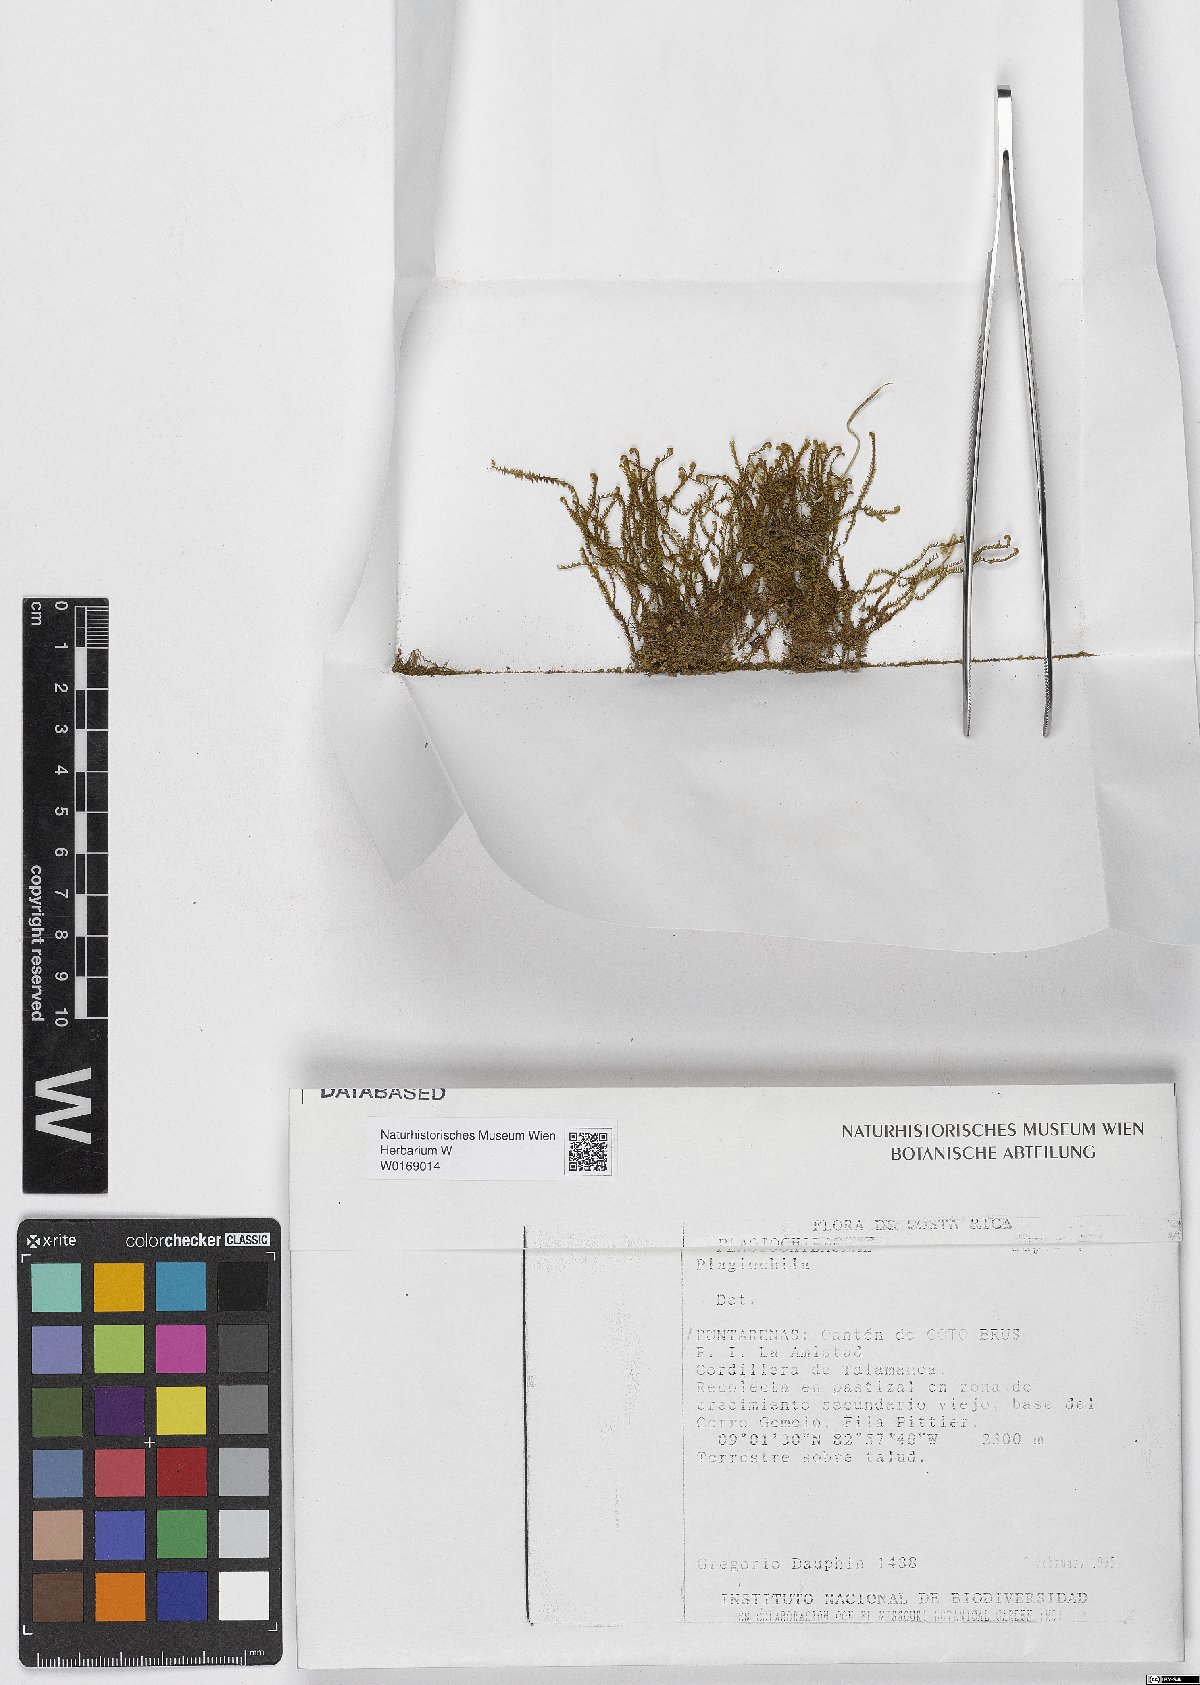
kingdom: Plantae
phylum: Marchantiophyta
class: Jungermanniopsida
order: Jungermanniales
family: Plagiochilaceae
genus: Plagiochila
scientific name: Plagiochila
